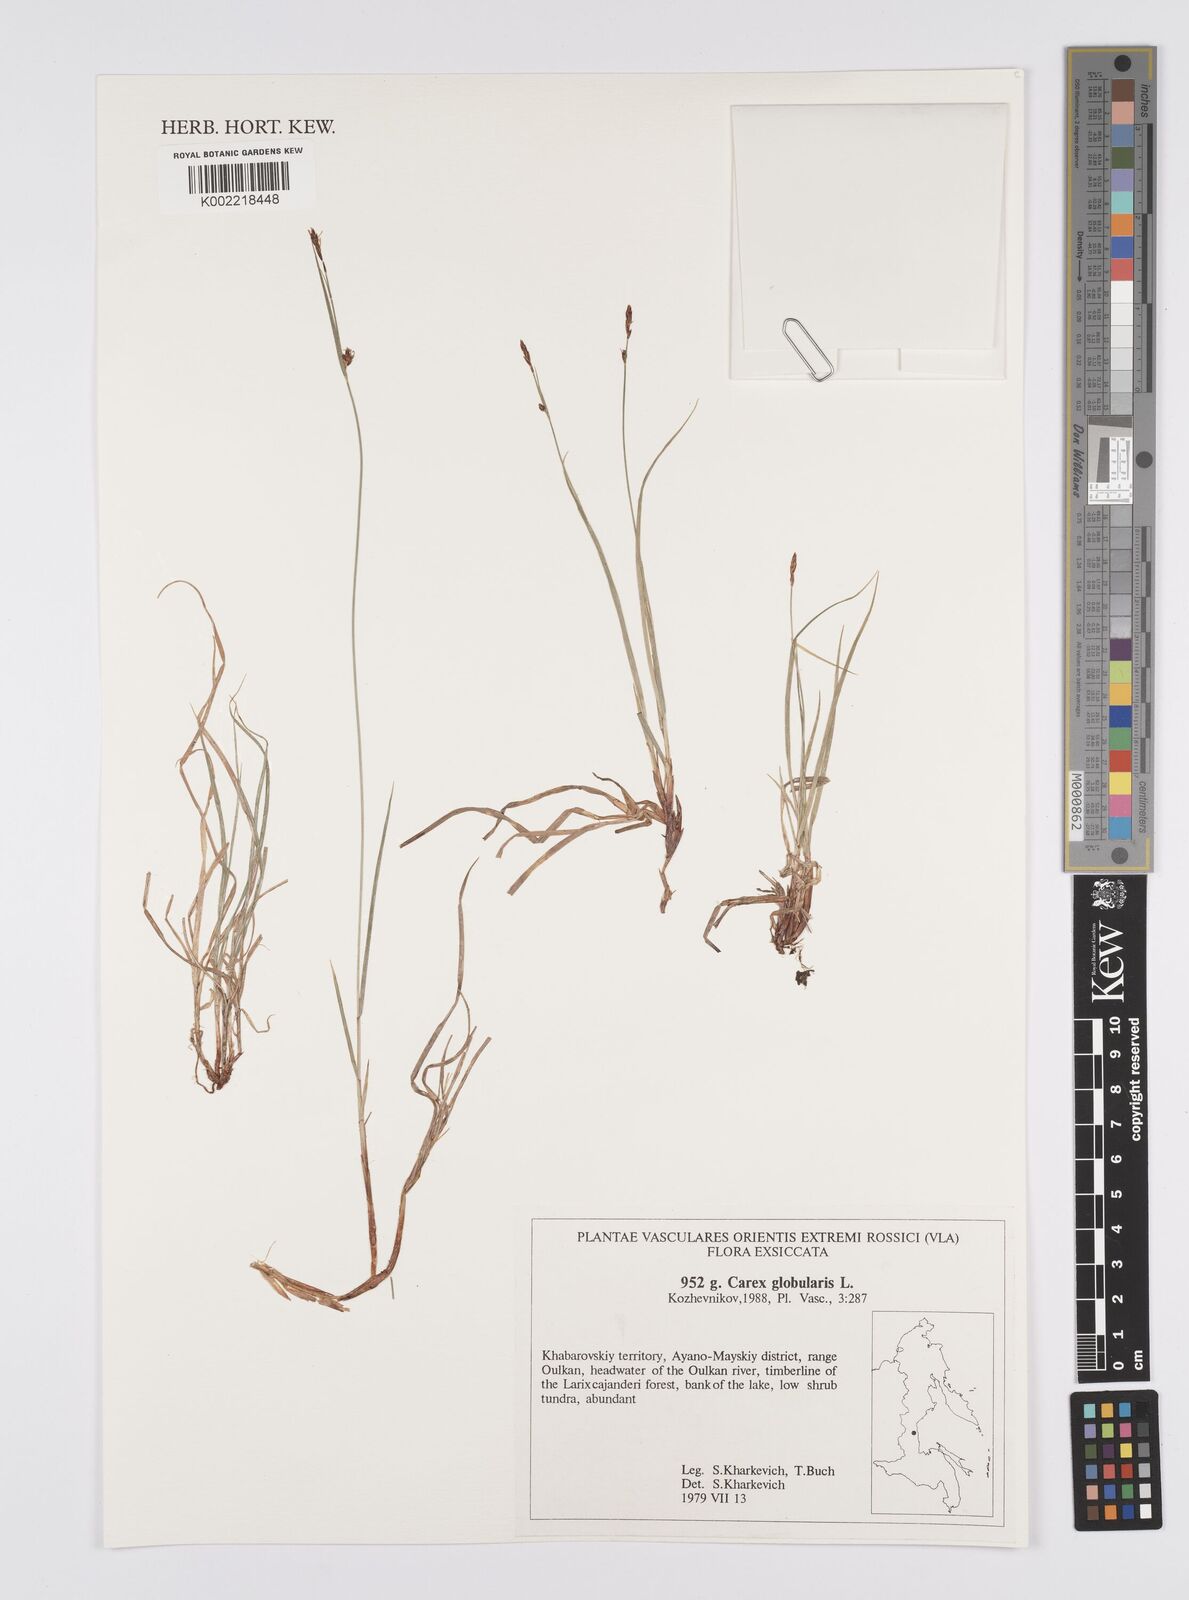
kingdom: Plantae
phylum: Tracheophyta
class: Liliopsida
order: Poales
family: Cyperaceae
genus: Carex
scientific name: Carex globularis
